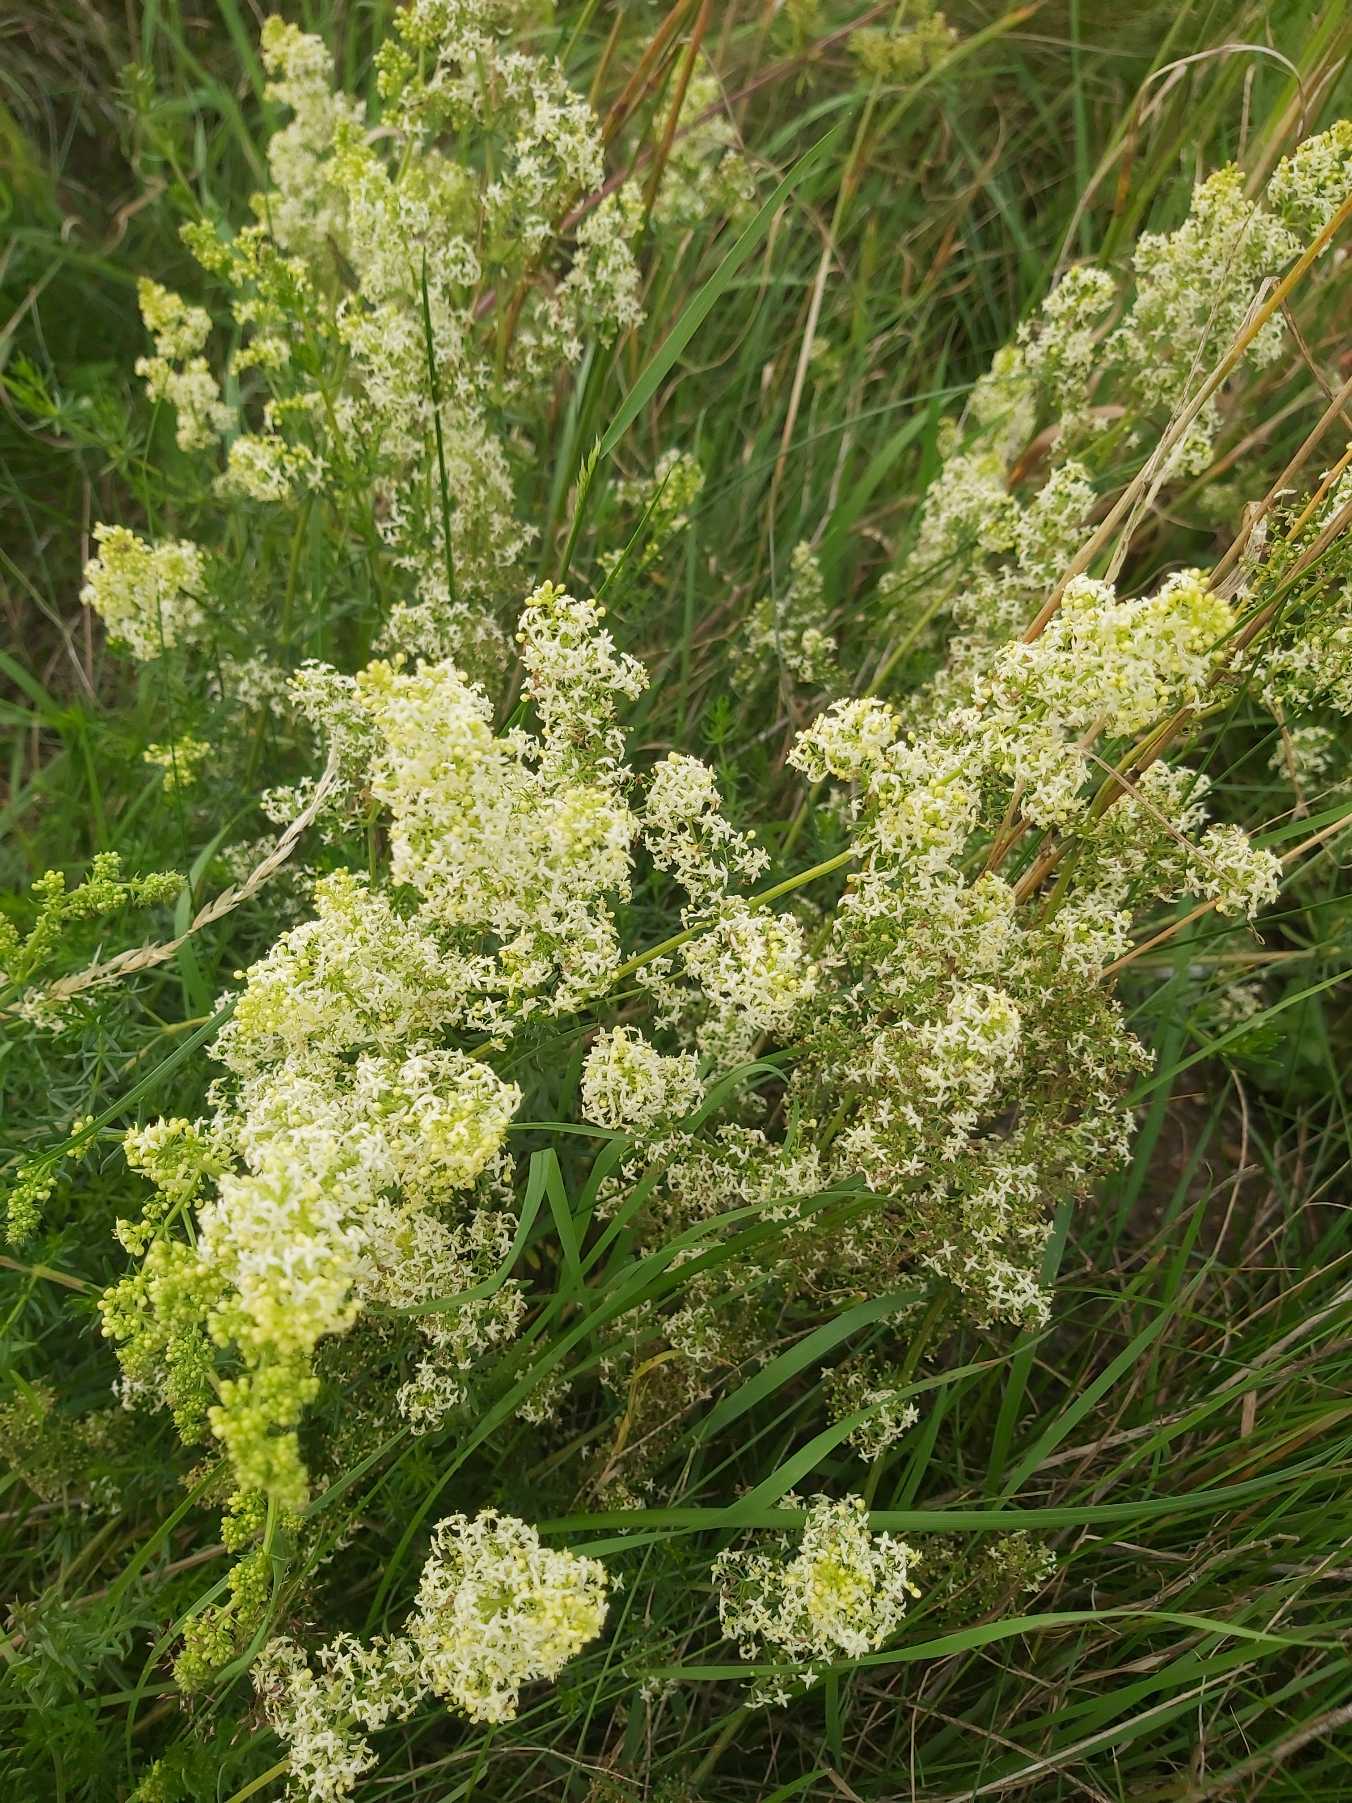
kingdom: Plantae
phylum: Tracheophyta
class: Magnoliopsida
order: Gentianales
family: Rubiaceae
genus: Galium
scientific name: Galium mollugo
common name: Hvid snerre
